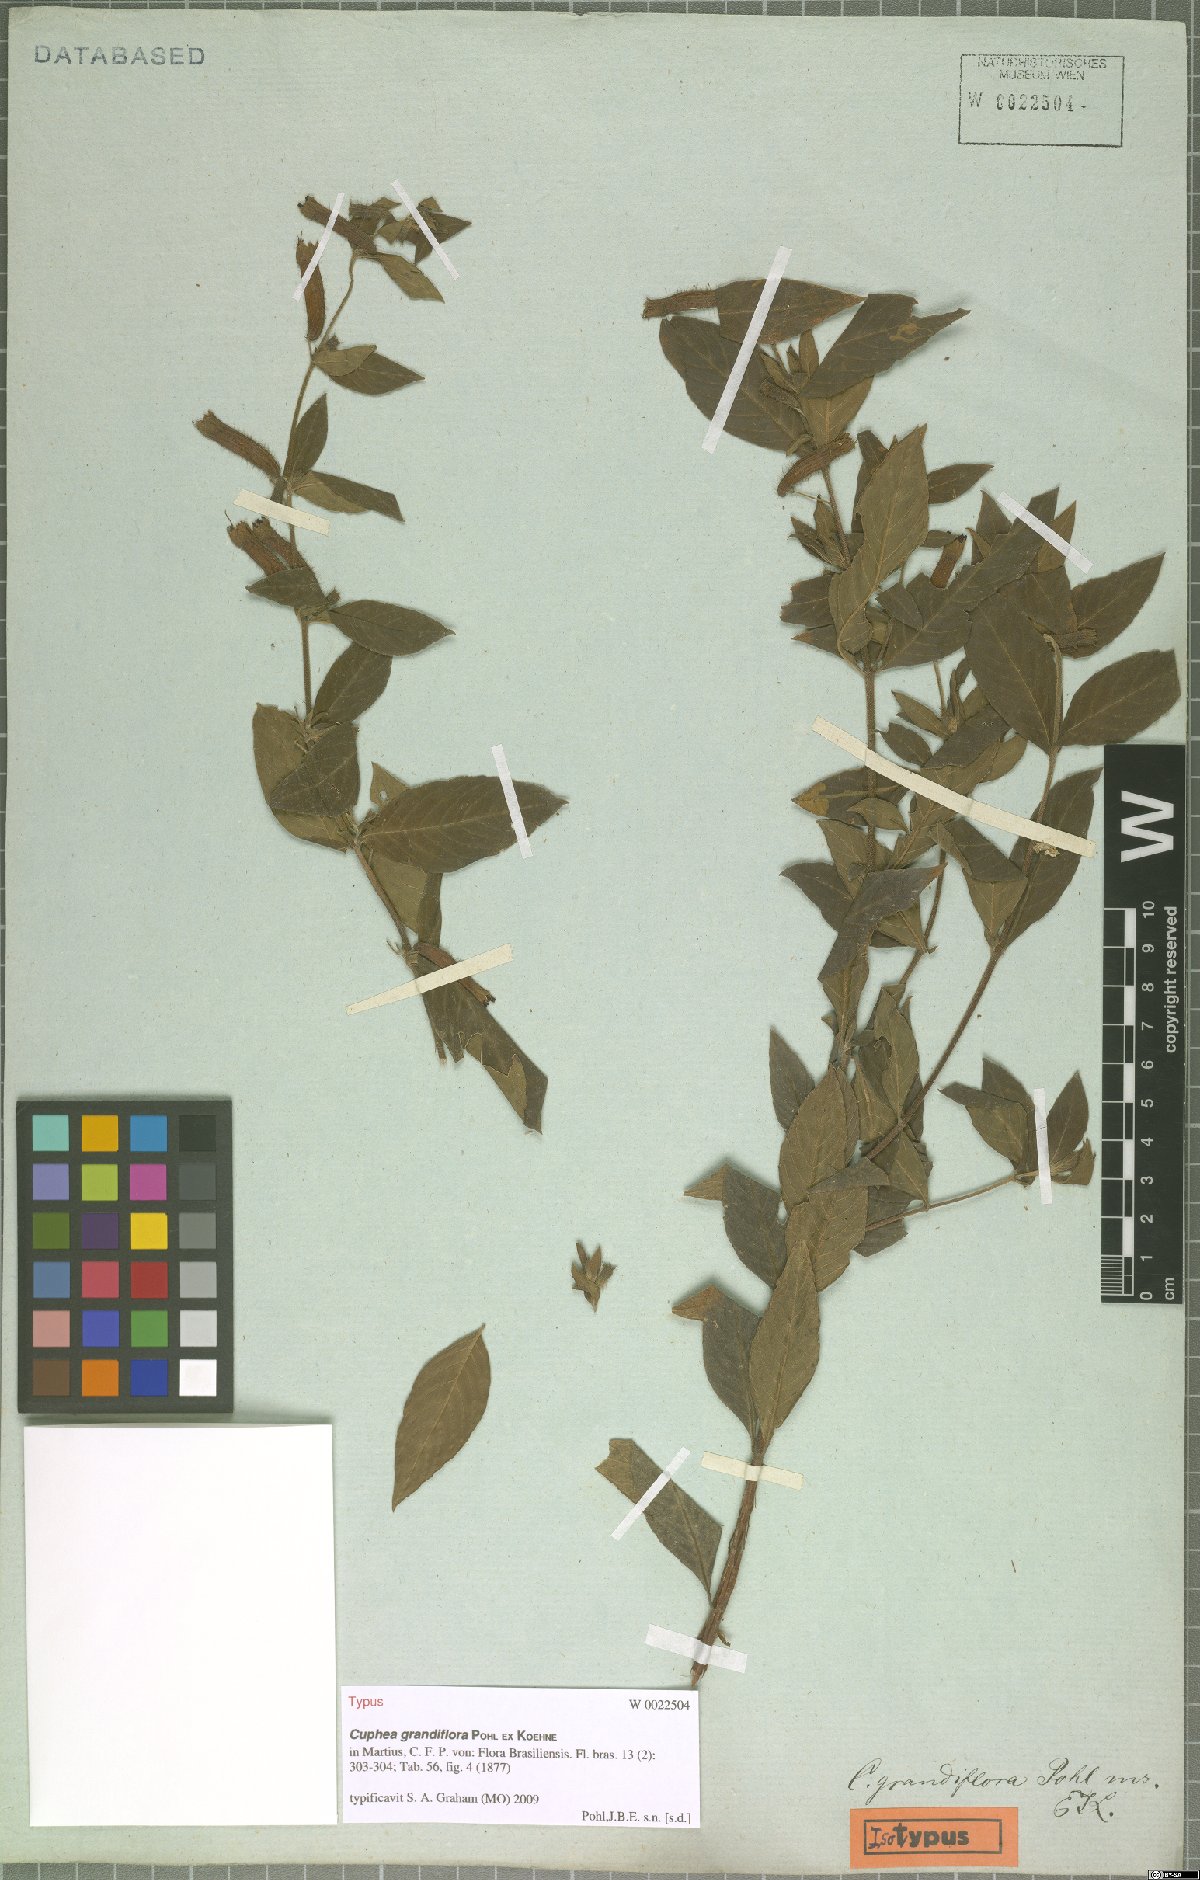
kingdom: Plantae
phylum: Tracheophyta
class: Magnoliopsida
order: Myrtales
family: Lythraceae
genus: Cuphea
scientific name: Cuphea grandiflora
